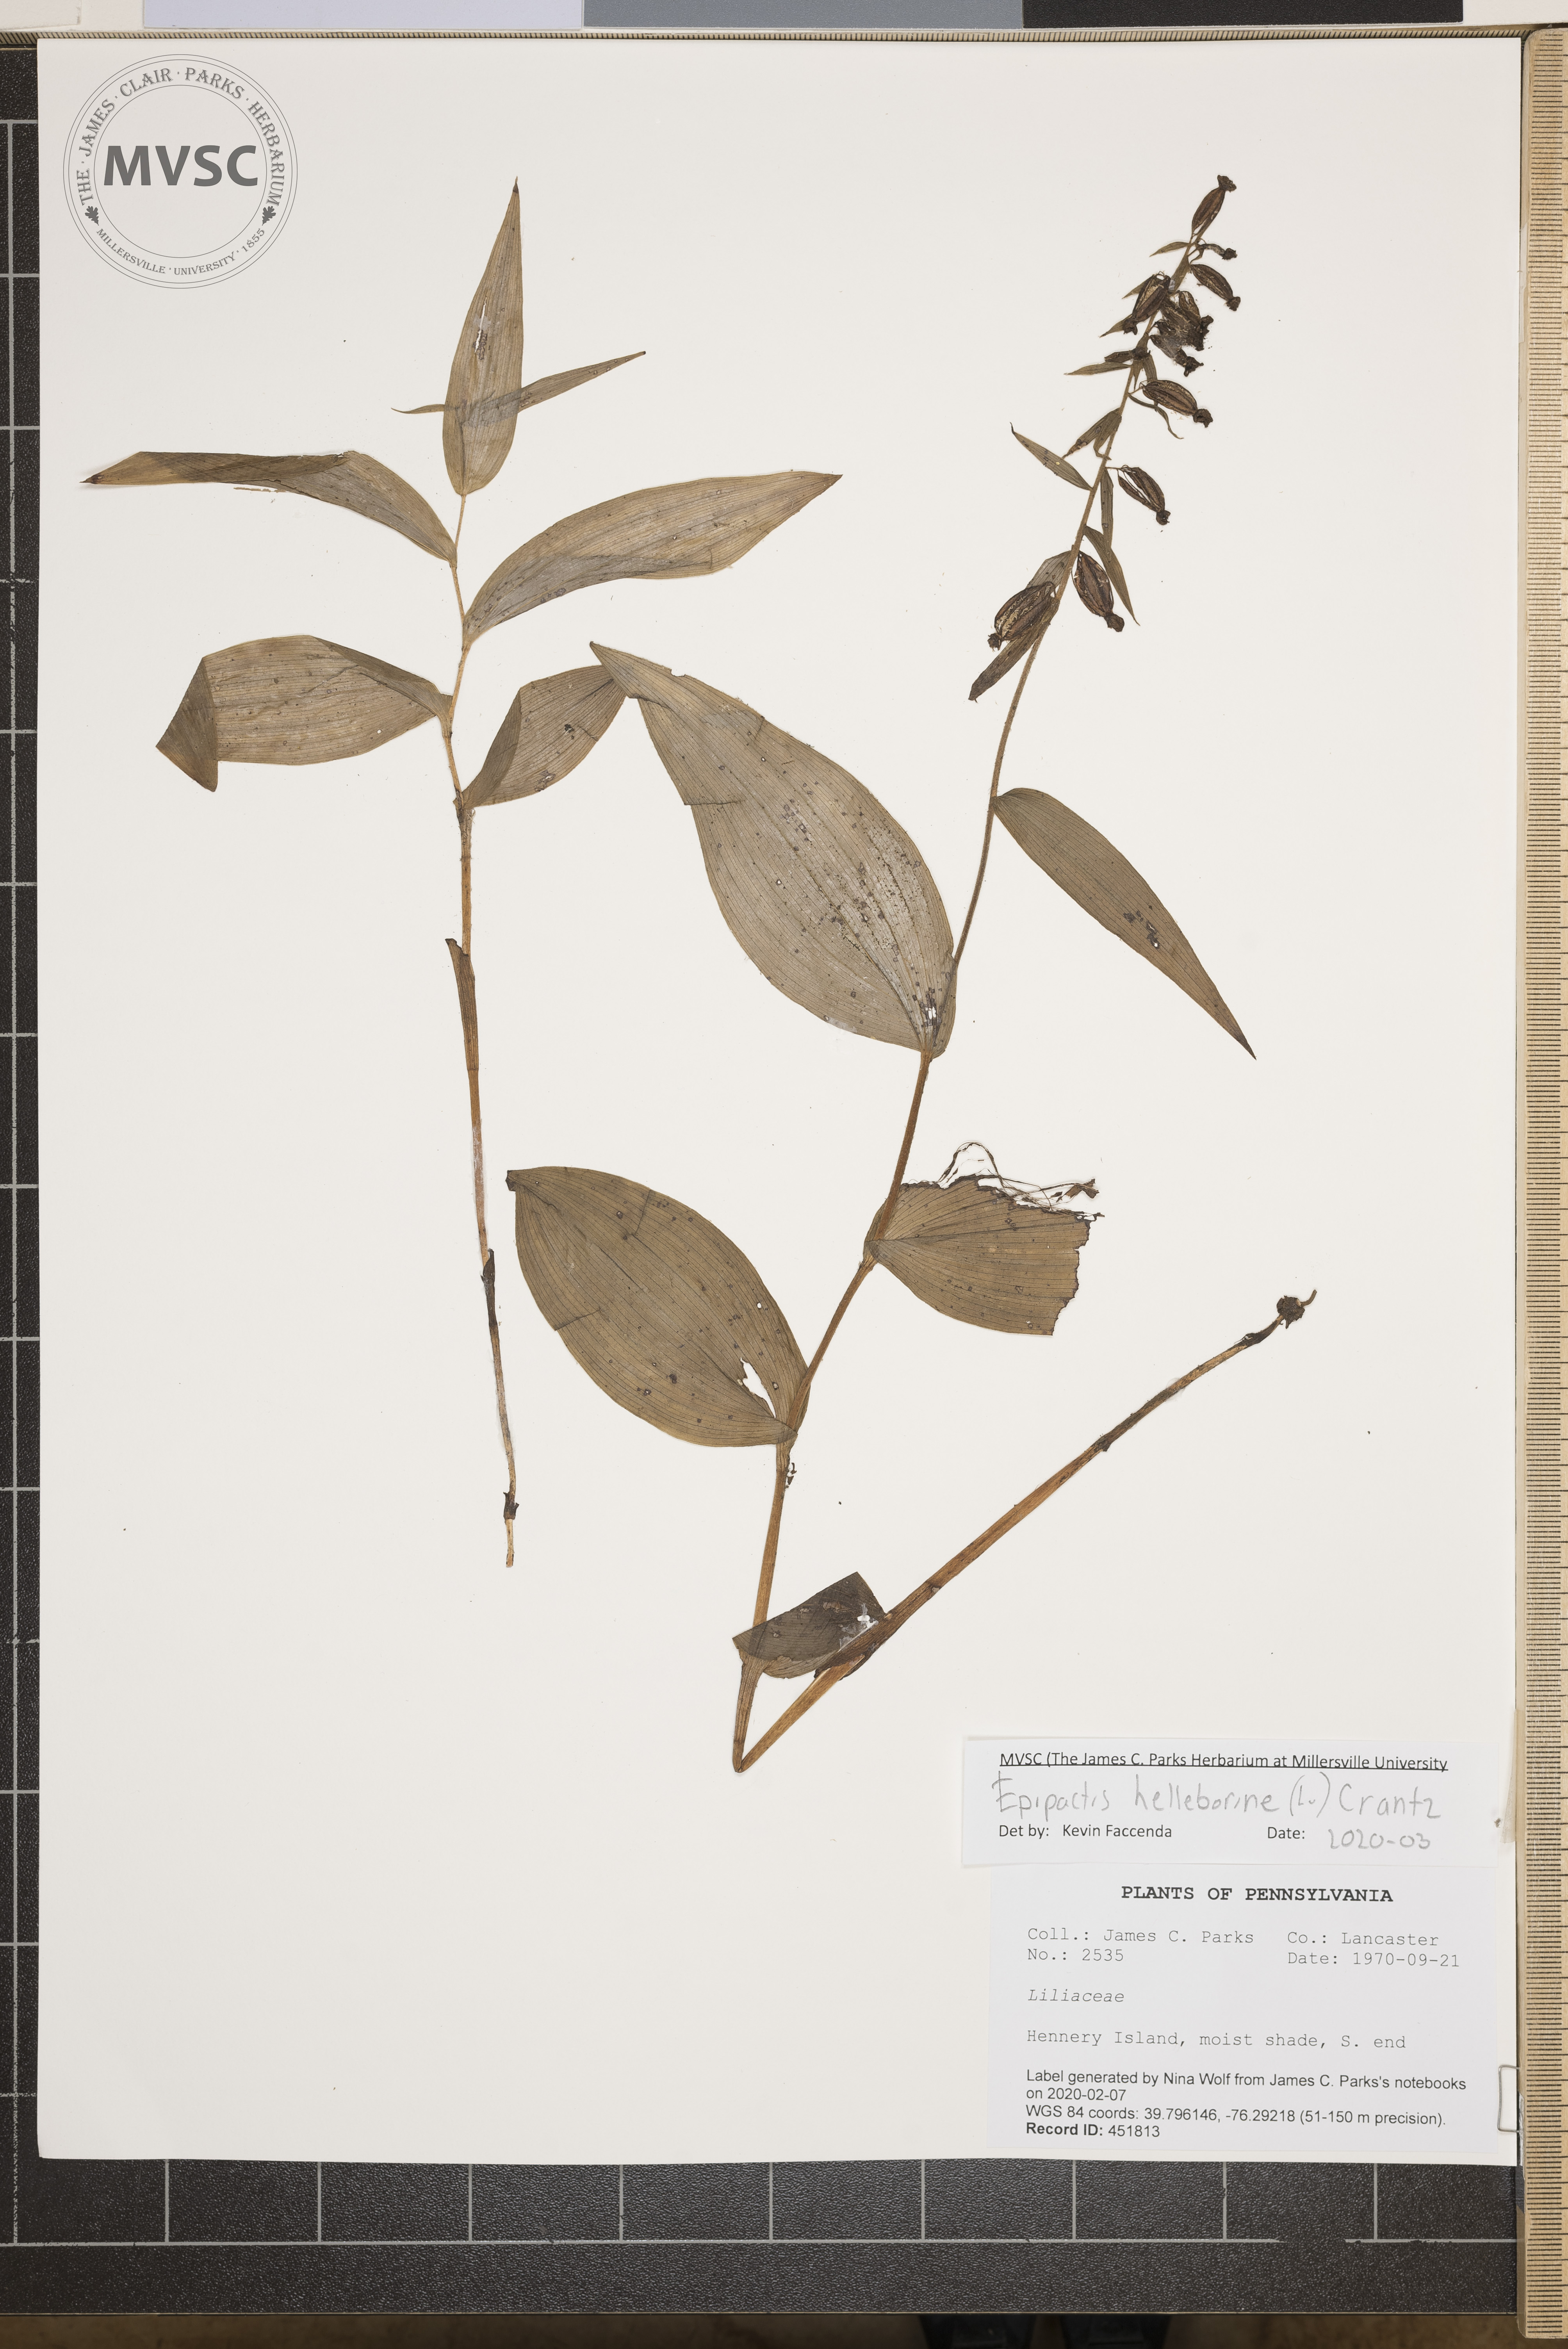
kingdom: Plantae
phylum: Tracheophyta
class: Liliopsida
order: Asparagales
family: Orchidaceae
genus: Epipactis
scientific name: Epipactis helleborine
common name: Broad-leaved helleborine
